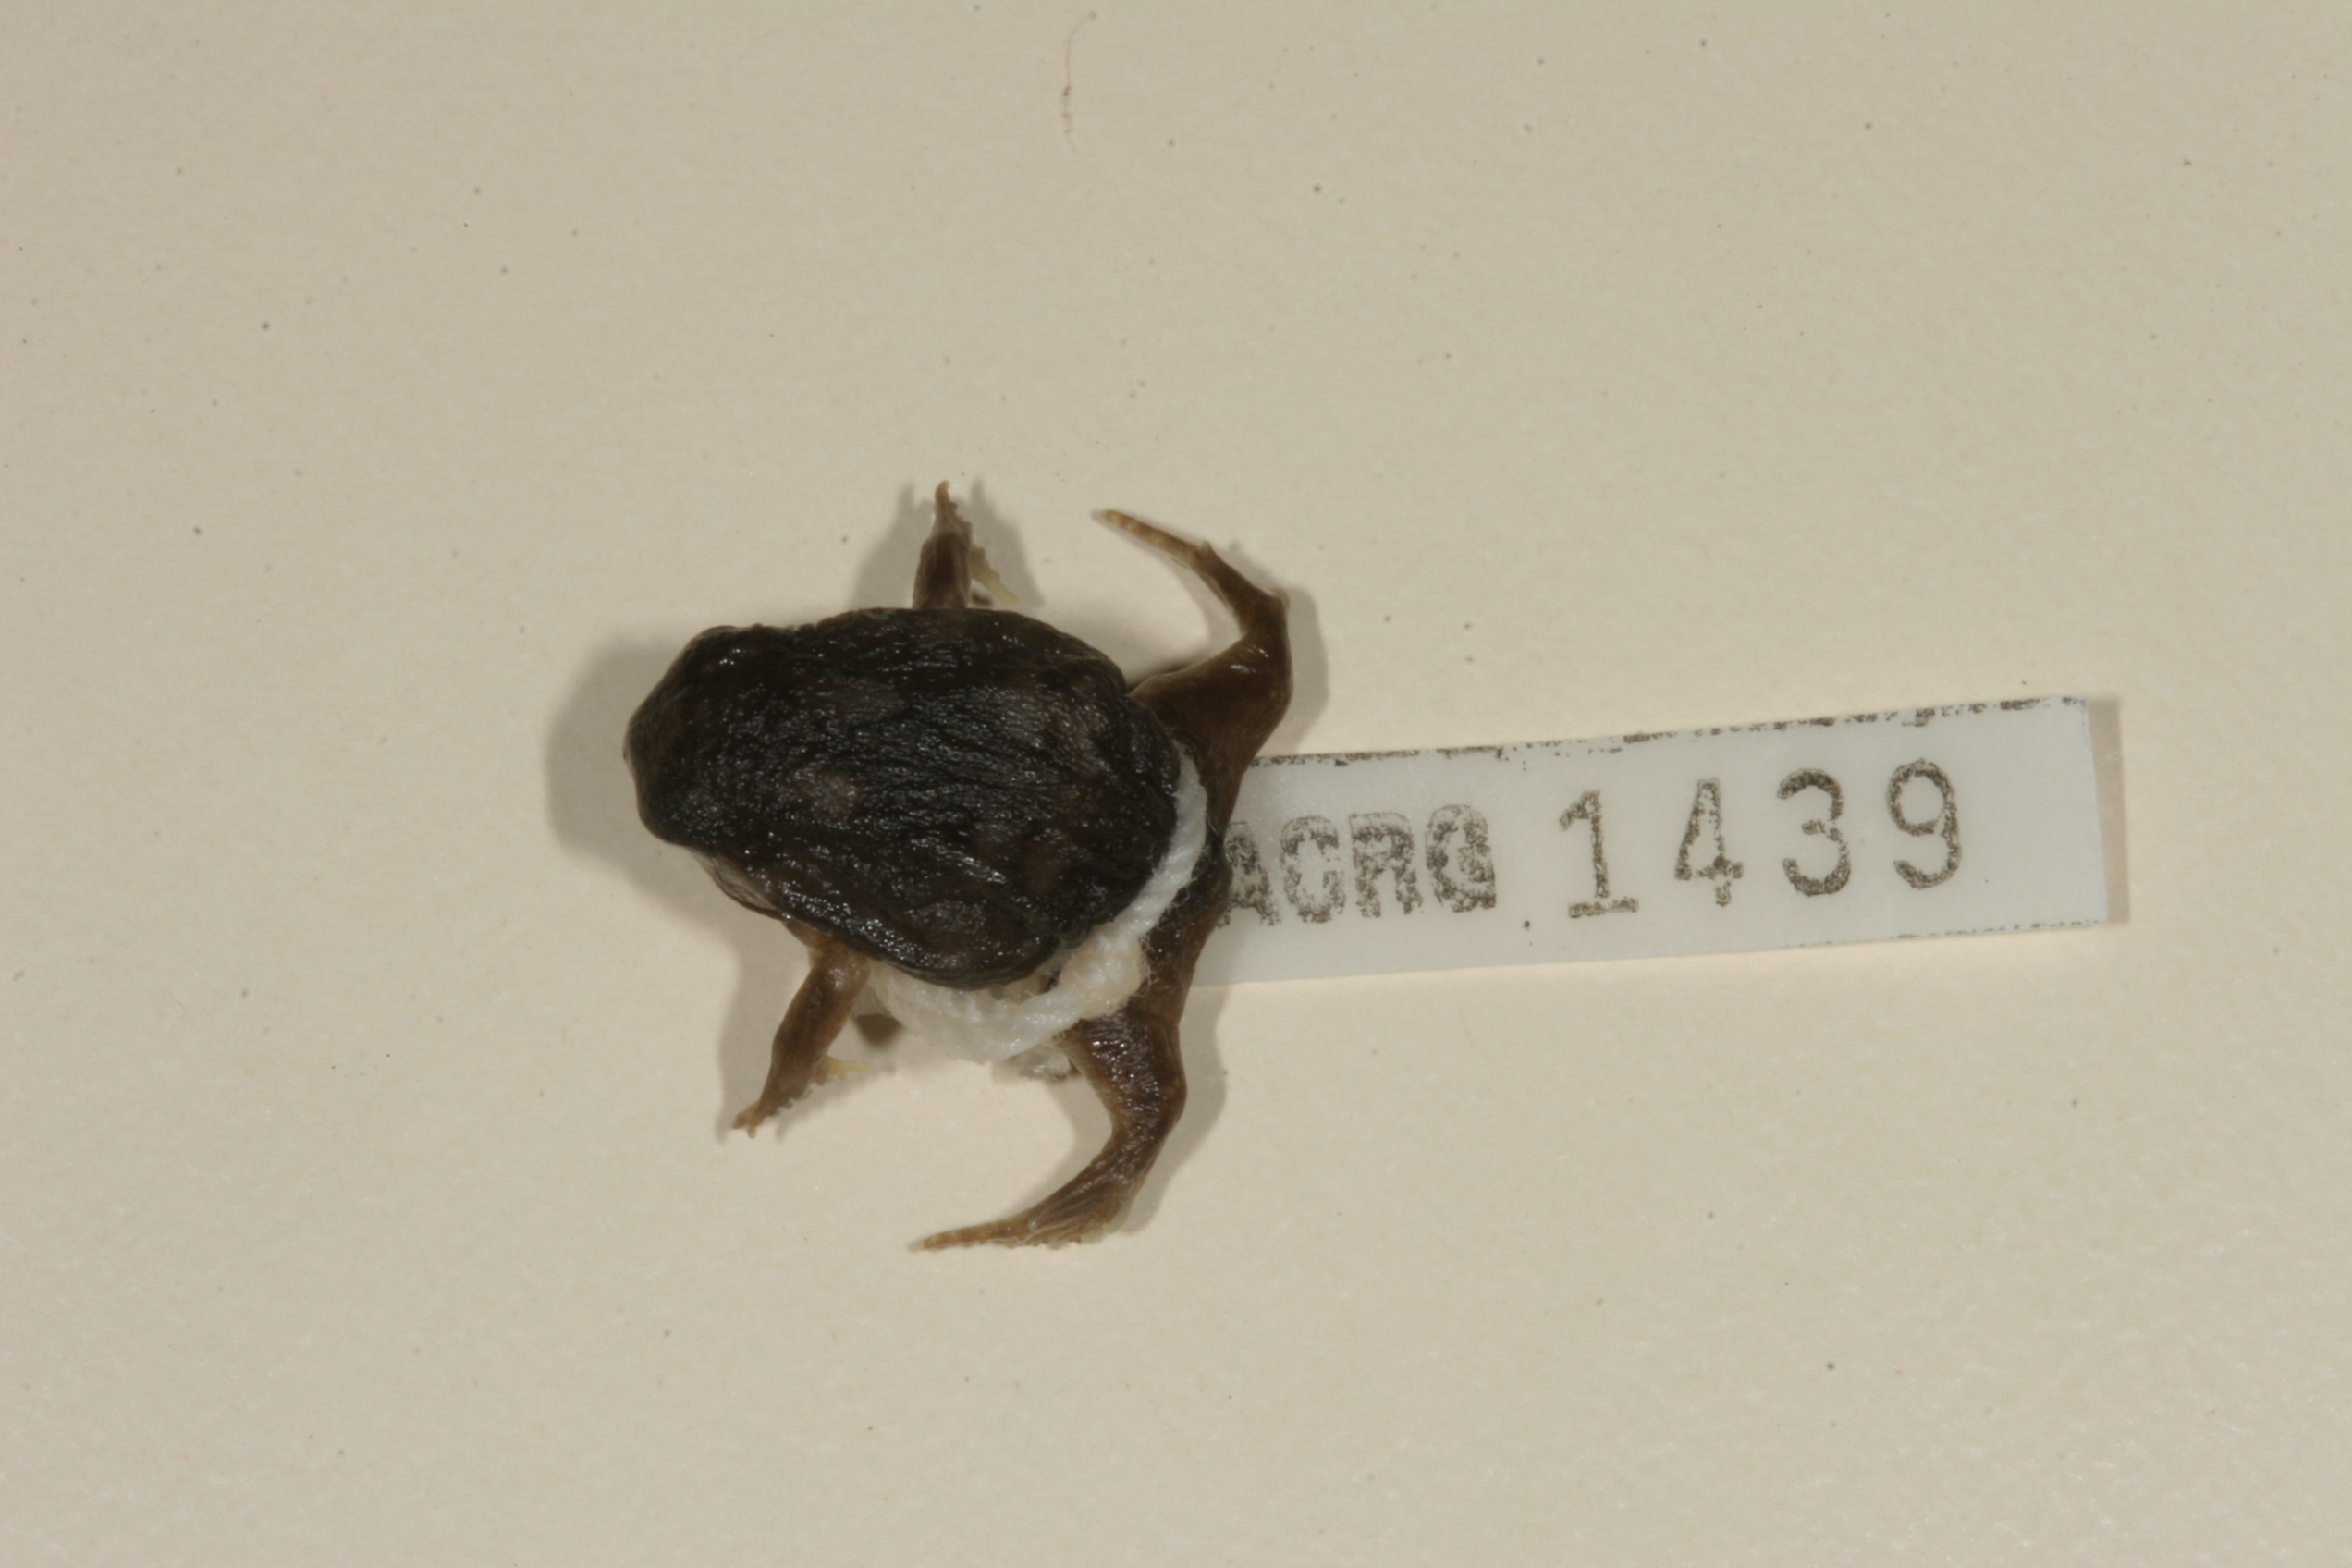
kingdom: Animalia
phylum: Chordata
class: Amphibia
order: Anura
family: Brevicipitidae
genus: Breviceps
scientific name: Breviceps adspersus
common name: Common rain frog
